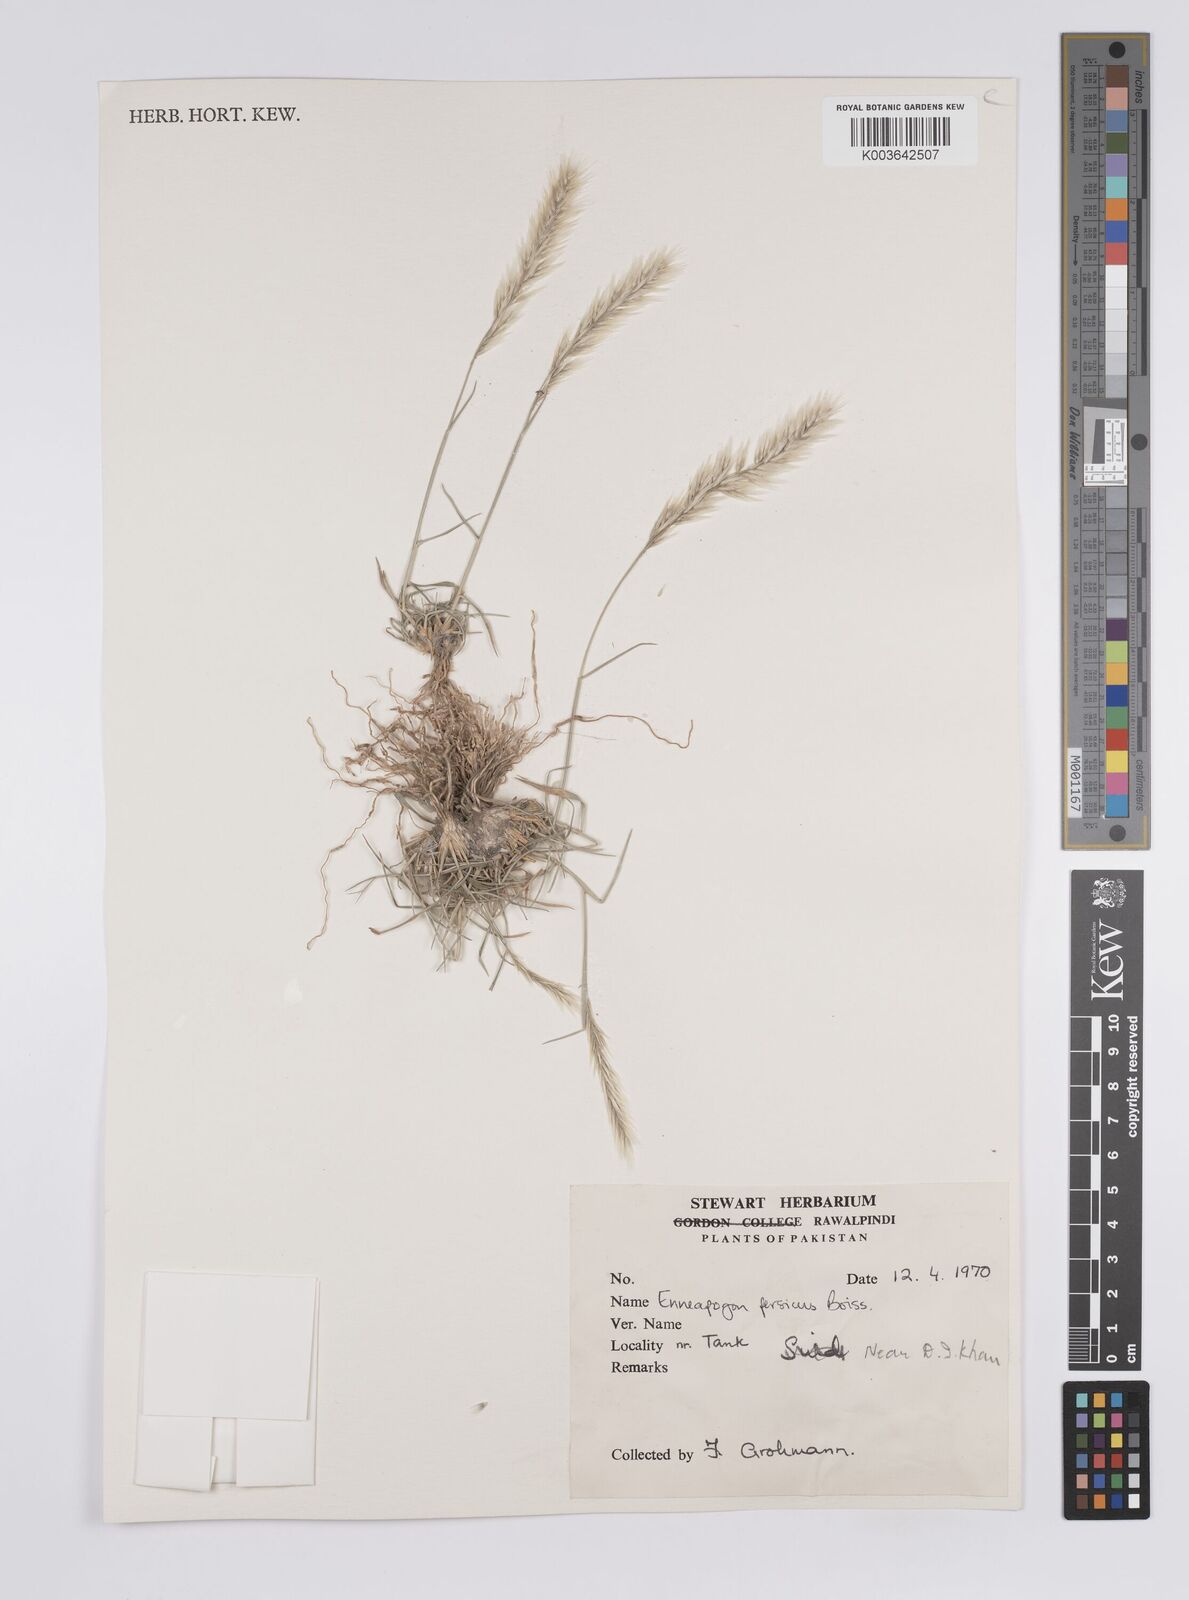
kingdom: Plantae
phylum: Tracheophyta
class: Liliopsida
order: Poales
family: Poaceae
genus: Enneapogon
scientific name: Enneapogon persicus
